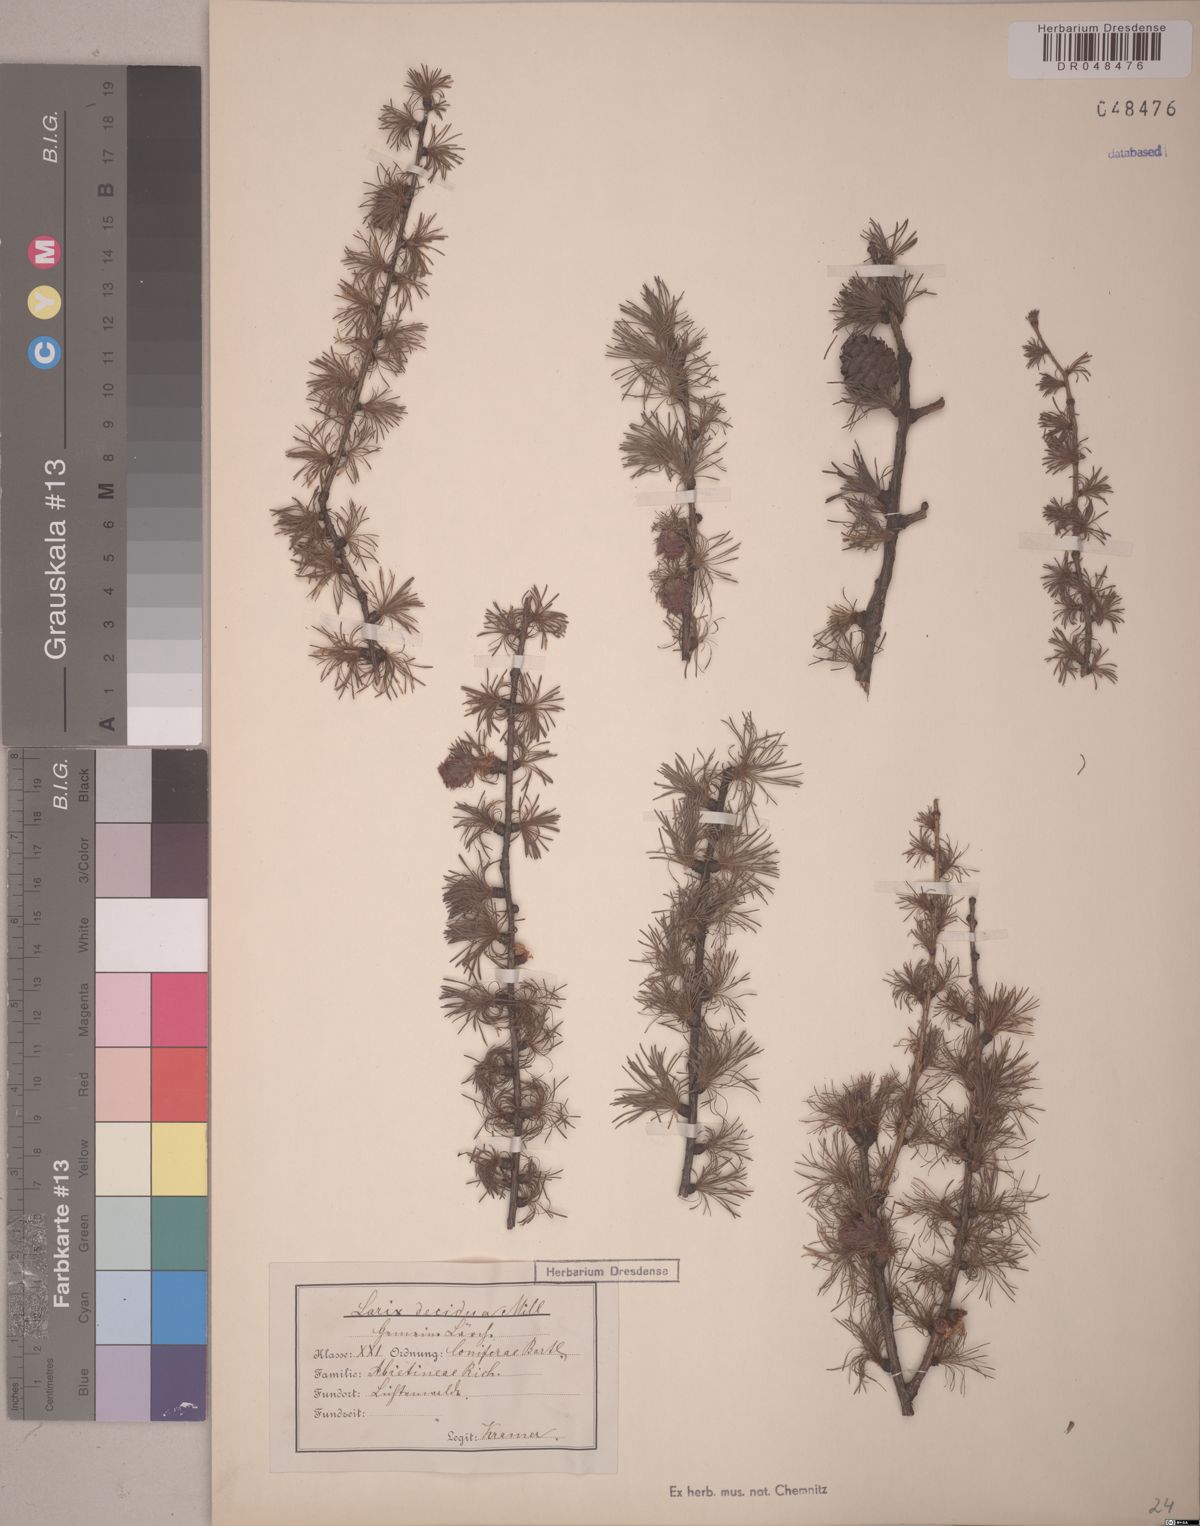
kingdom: Plantae
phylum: Tracheophyta
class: Pinopsida
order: Pinales
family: Pinaceae
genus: Larix
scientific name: Larix decidua
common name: European larch
